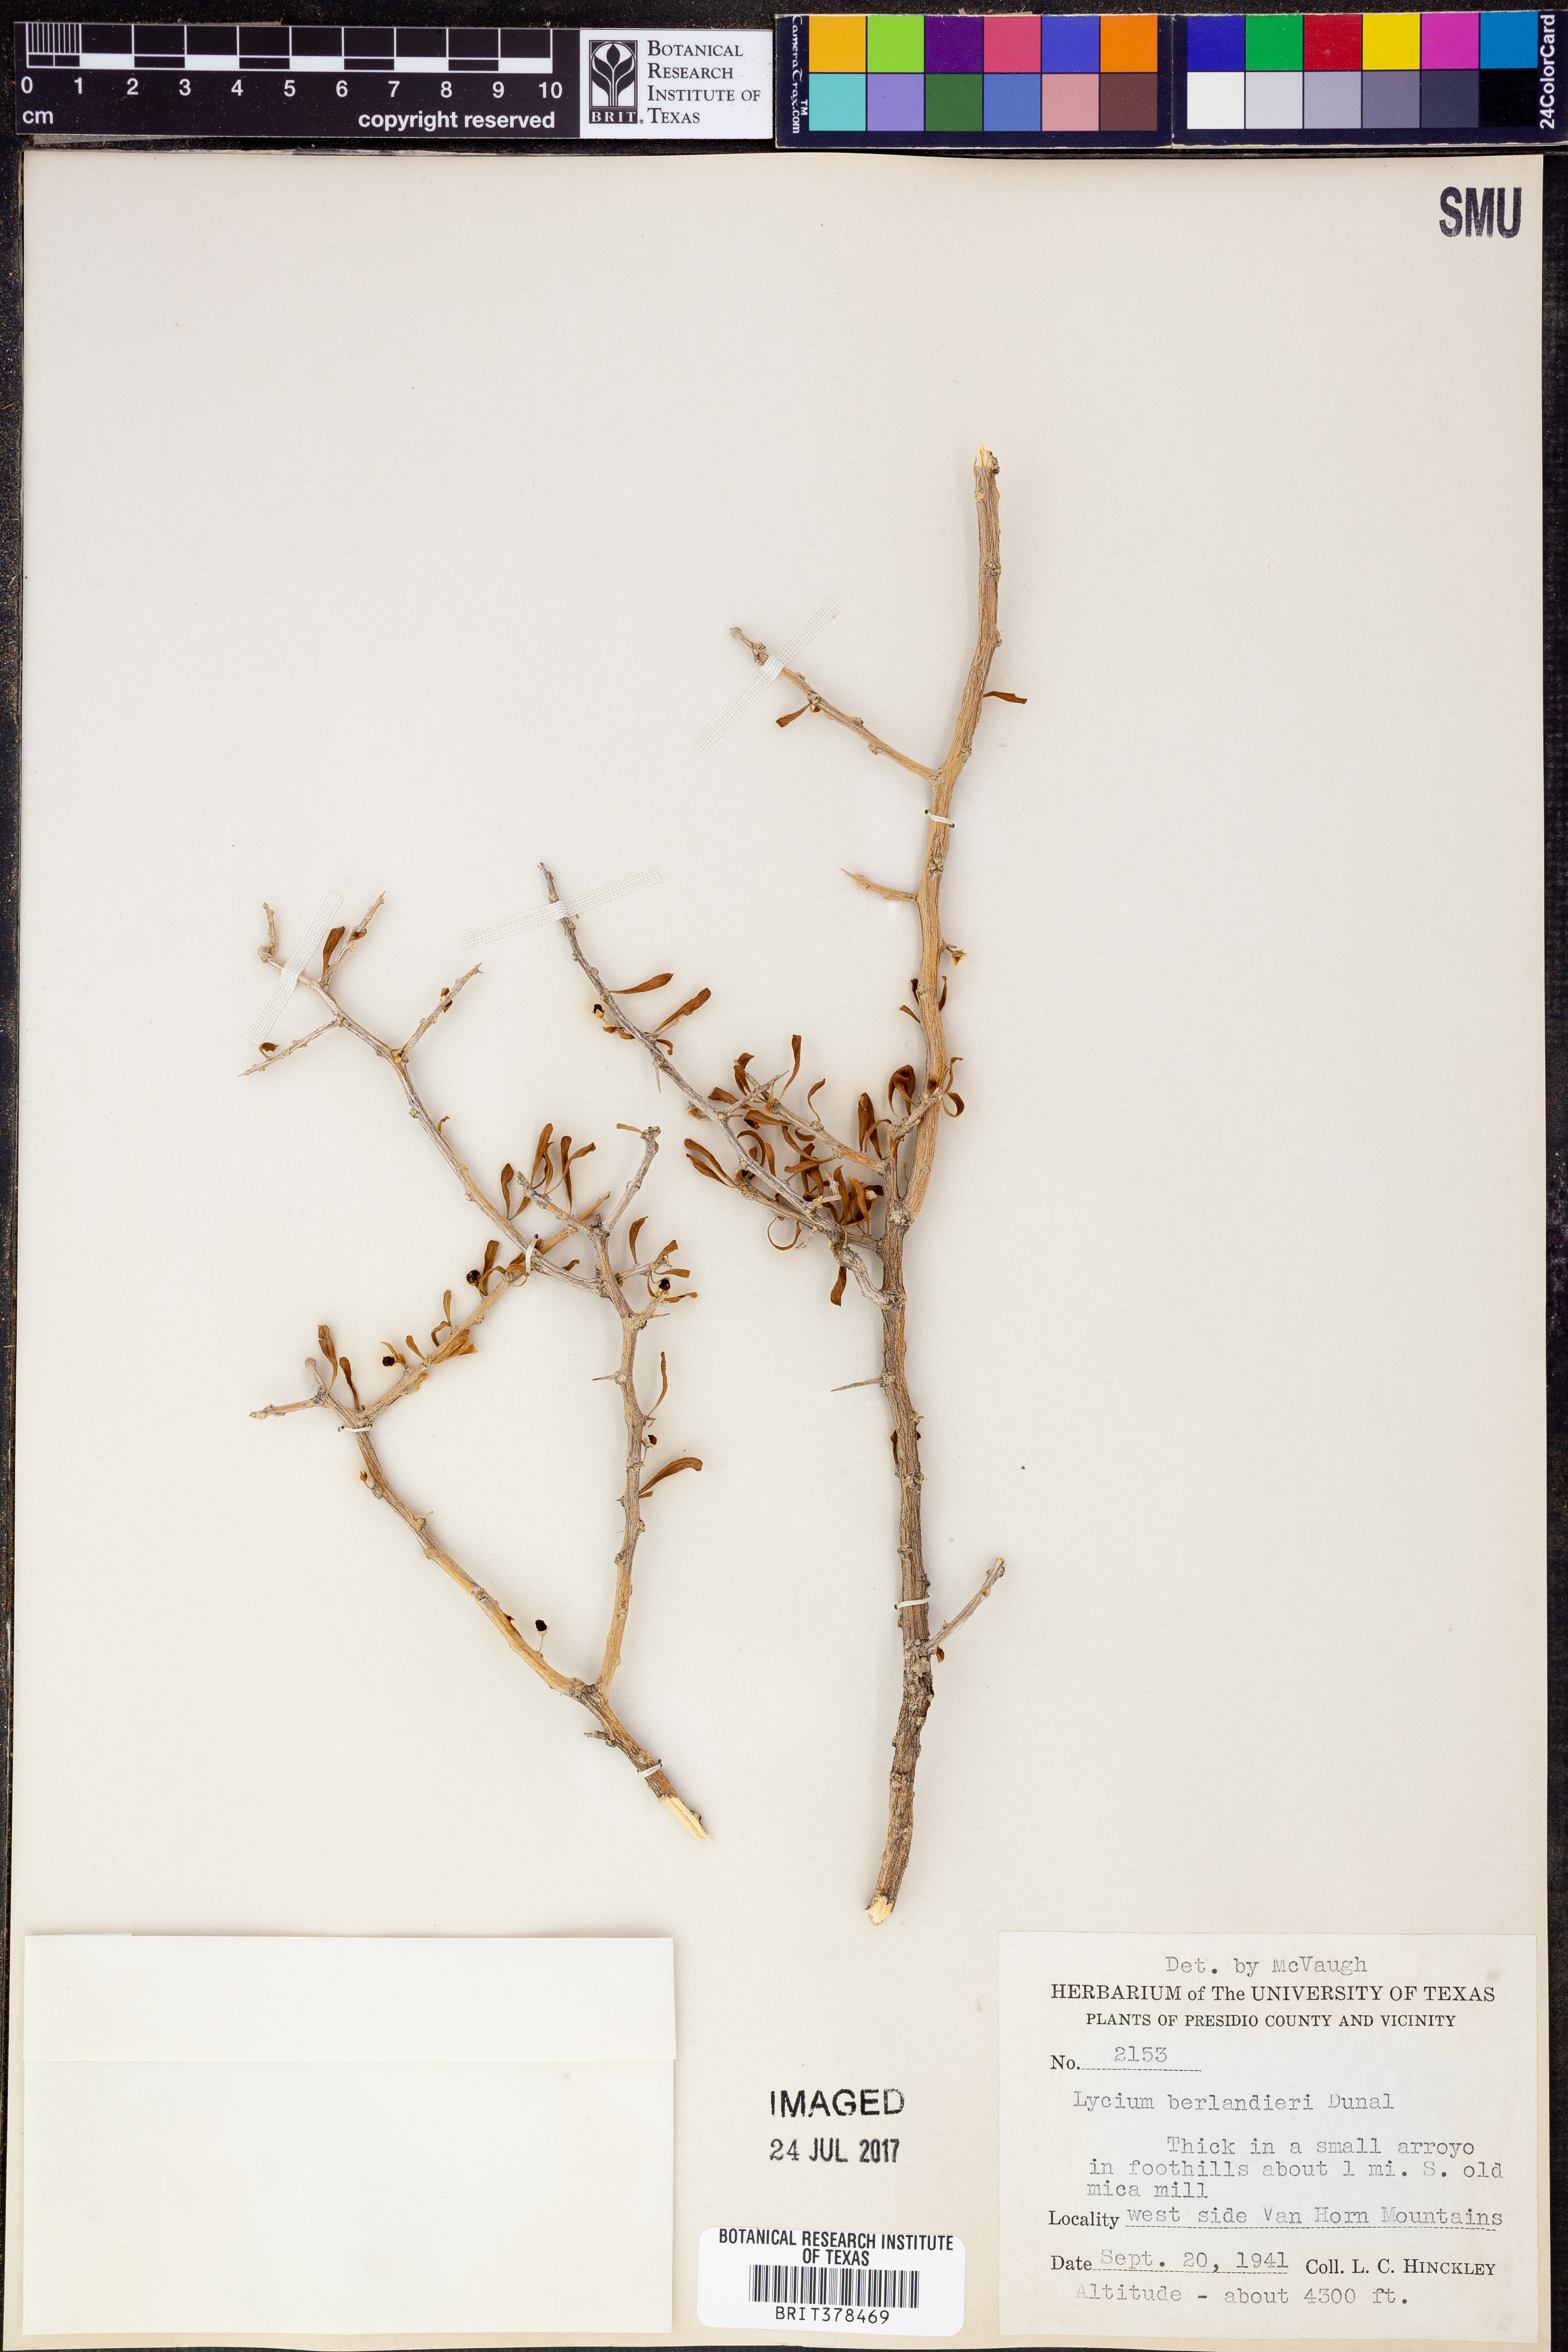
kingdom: Plantae
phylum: Tracheophyta
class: Magnoliopsida
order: Solanales
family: Solanaceae
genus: Lycium
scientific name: Lycium berlandieri
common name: Berlandier wolfberry
